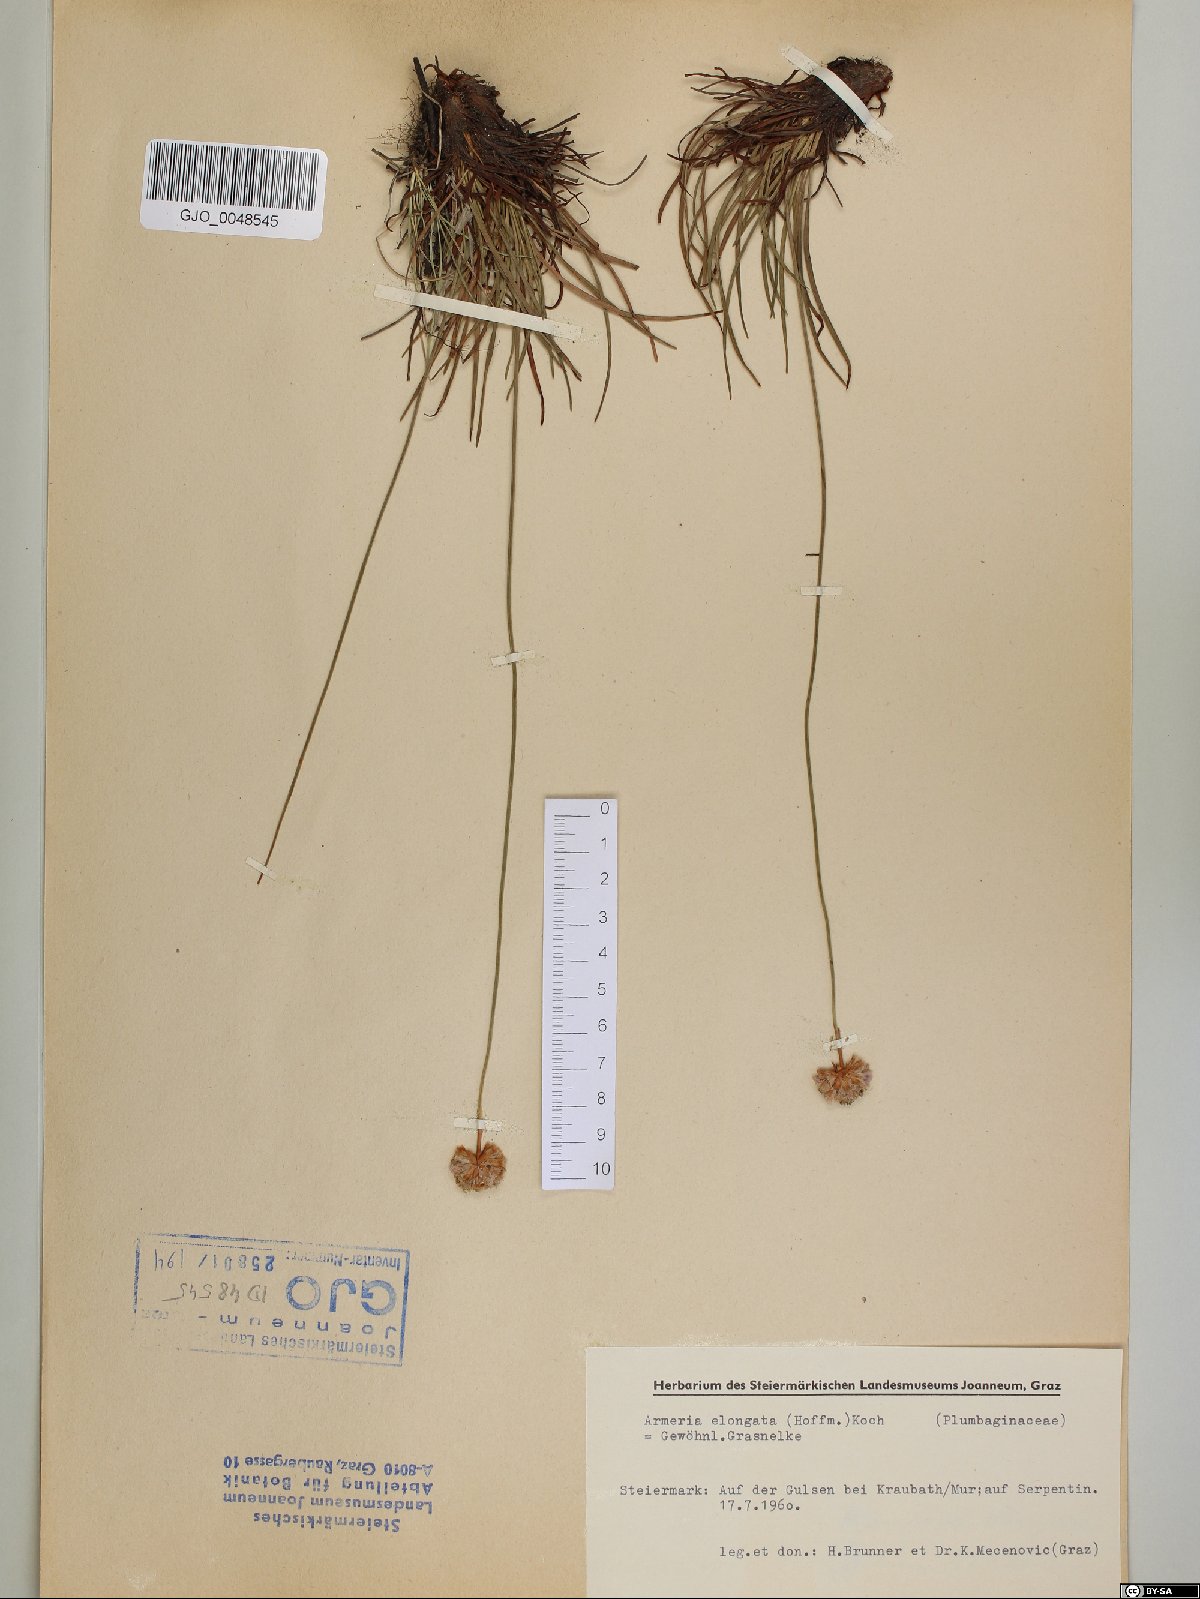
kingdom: Plantae
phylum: Tracheophyta
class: Magnoliopsida
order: Caryophyllales
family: Plumbaginaceae
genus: Armeria
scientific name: Armeria maritima
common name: Thrift
